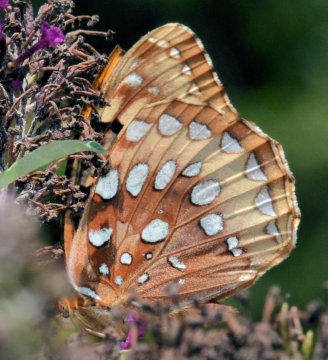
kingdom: Animalia
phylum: Arthropoda
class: Insecta
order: Lepidoptera
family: Nymphalidae
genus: Speyeria
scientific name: Speyeria cybele
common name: Great Spangled Fritillary
